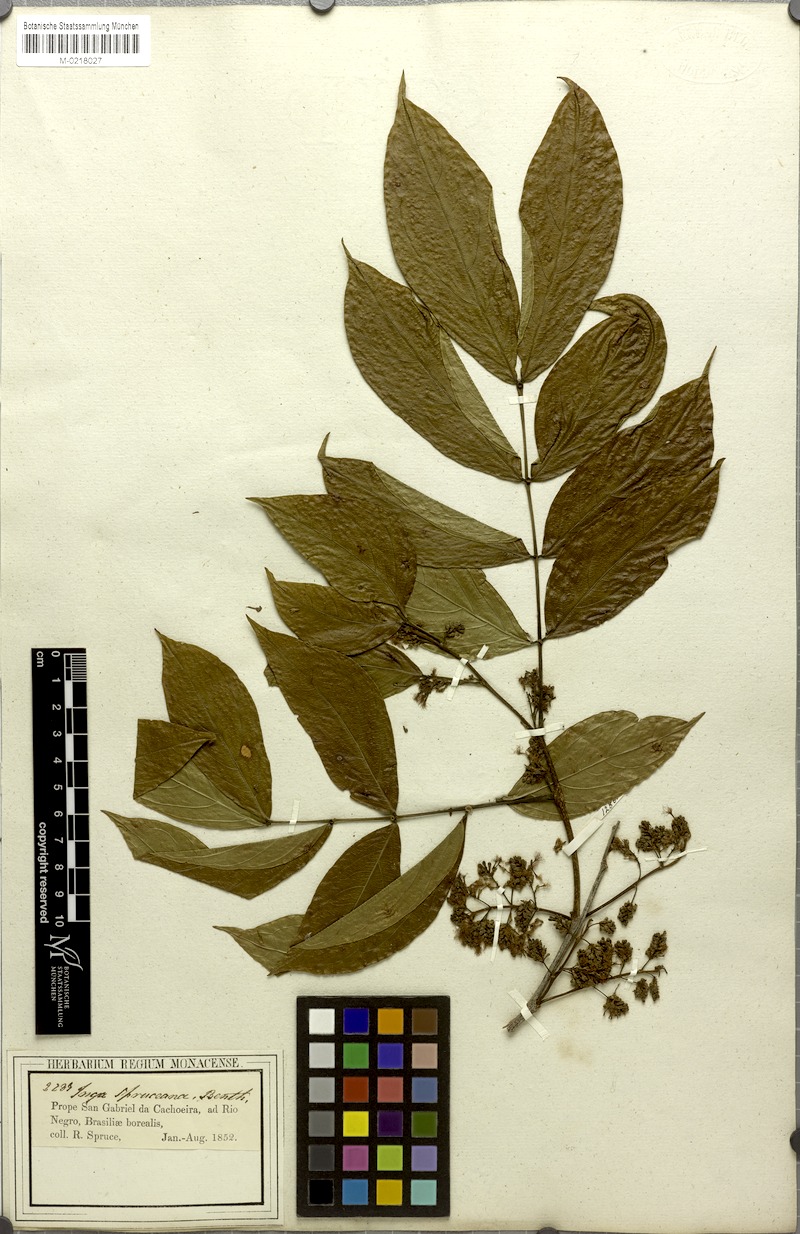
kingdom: Plantae
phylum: Tracheophyta
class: Magnoliopsida
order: Fabales
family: Fabaceae
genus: Inga
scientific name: Inga alba
